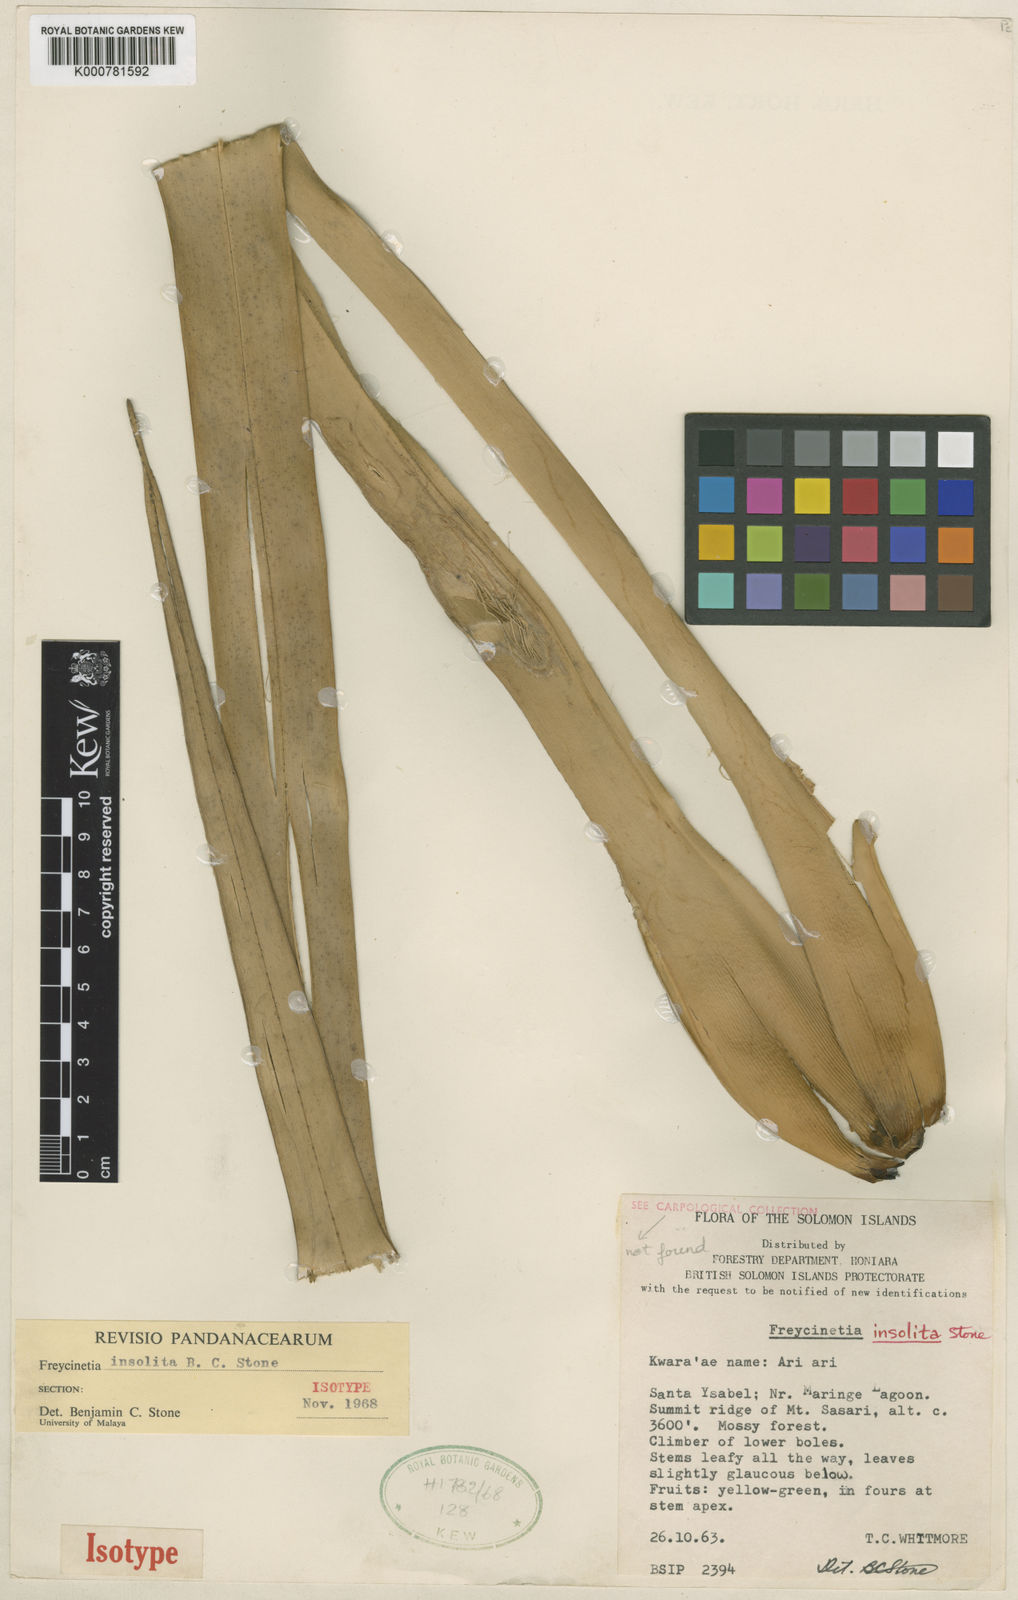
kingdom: Plantae
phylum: Tracheophyta
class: Liliopsida
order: Pandanales
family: Pandanaceae
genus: Freycinetia
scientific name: Freycinetia insolita
